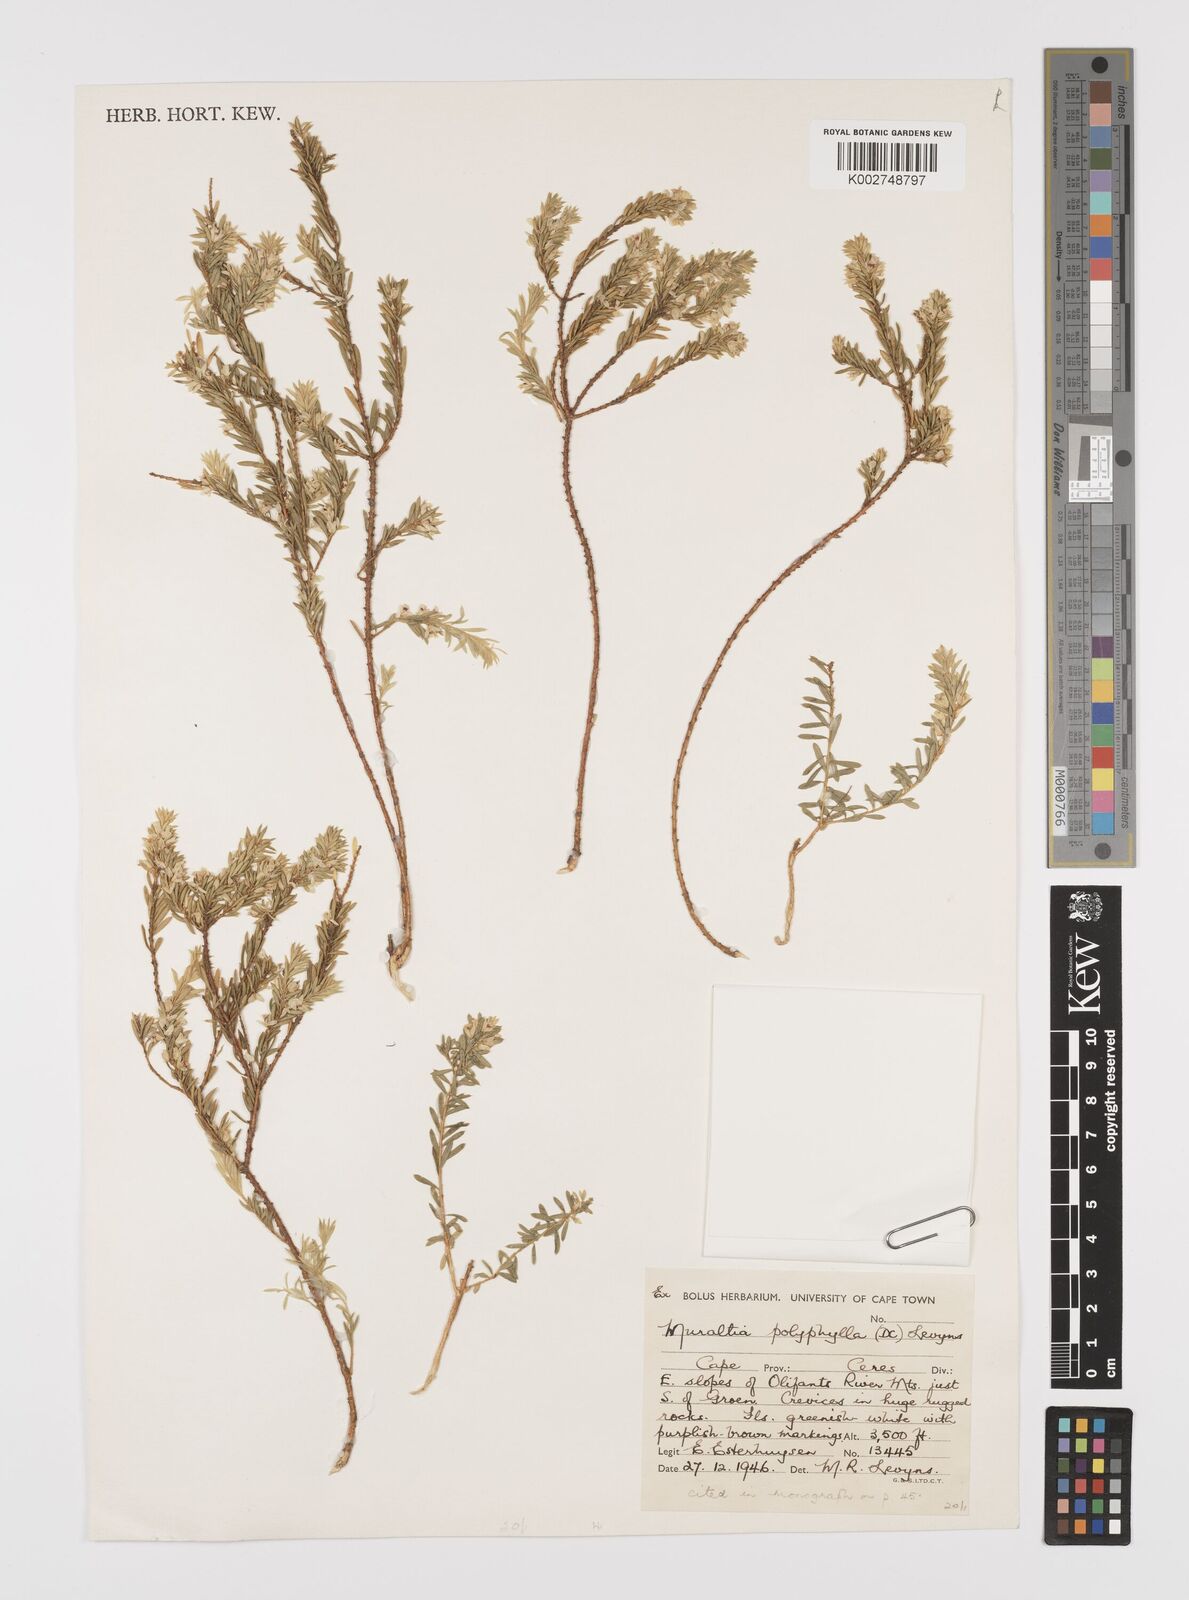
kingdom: Plantae
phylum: Tracheophyta
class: Magnoliopsida
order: Fabales
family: Polygalaceae
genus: Muraltia
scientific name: Muraltia polyphylla
